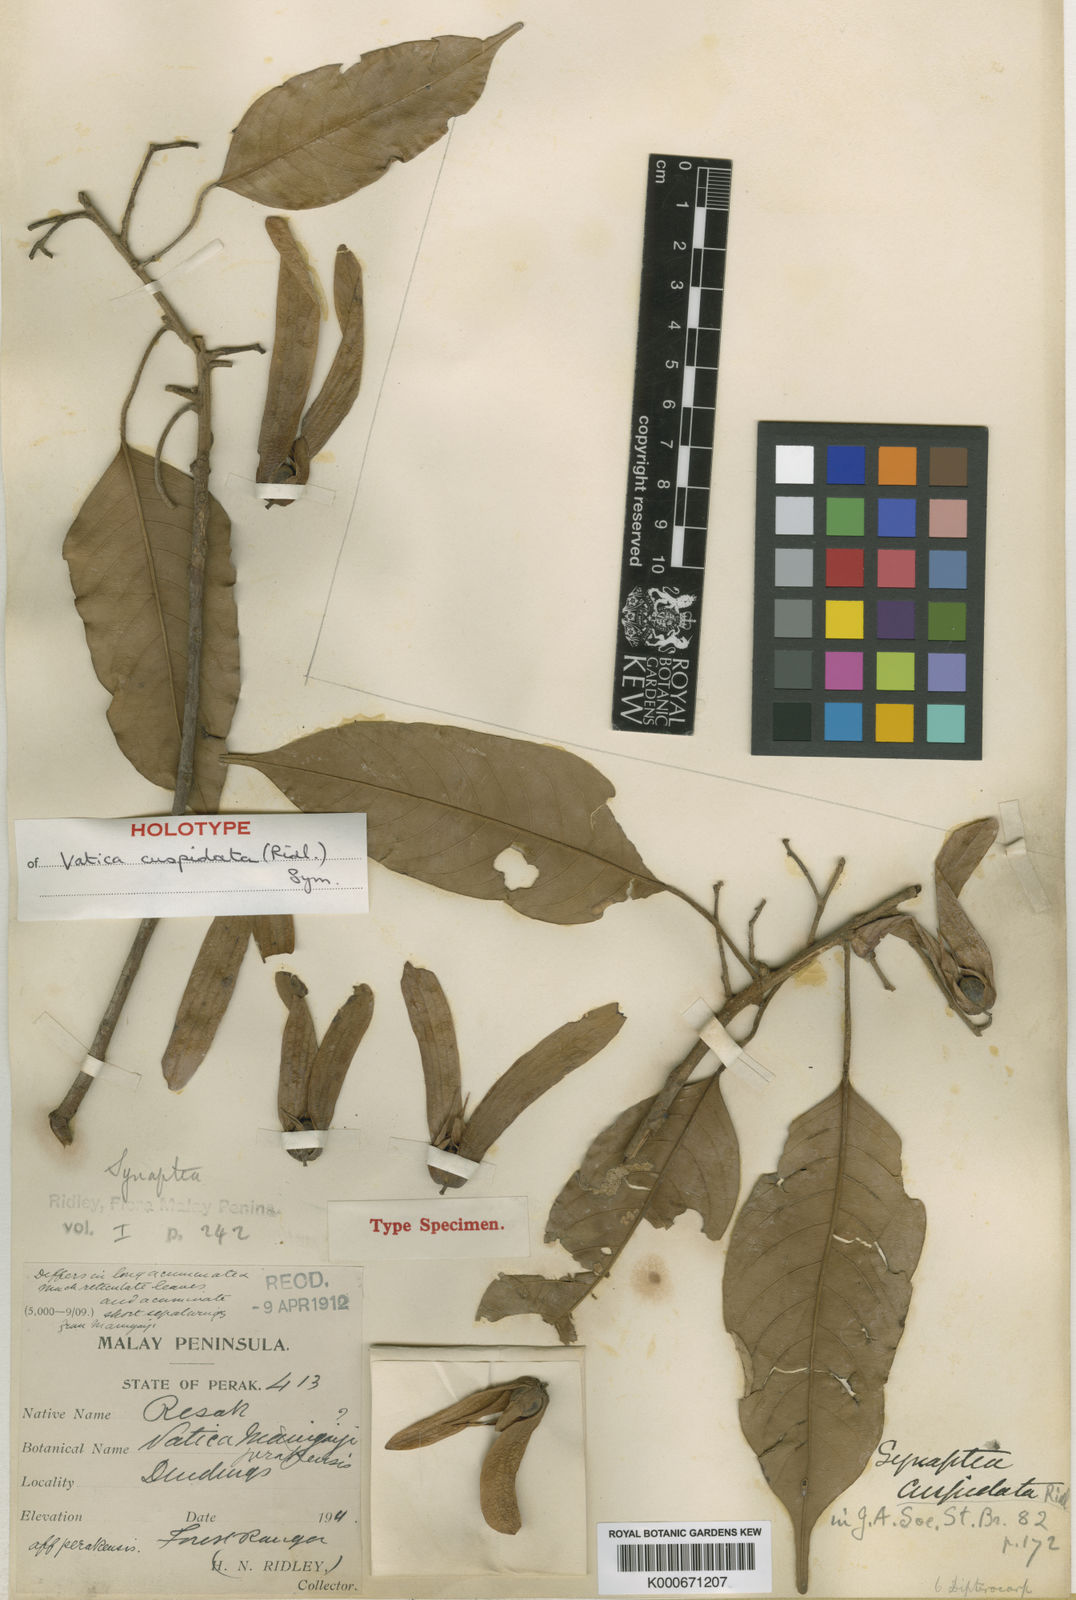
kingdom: Plantae
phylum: Tracheophyta
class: Magnoliopsida
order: Malvales
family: Dipterocarpaceae
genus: Vatica
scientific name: Vatica cuspidata
